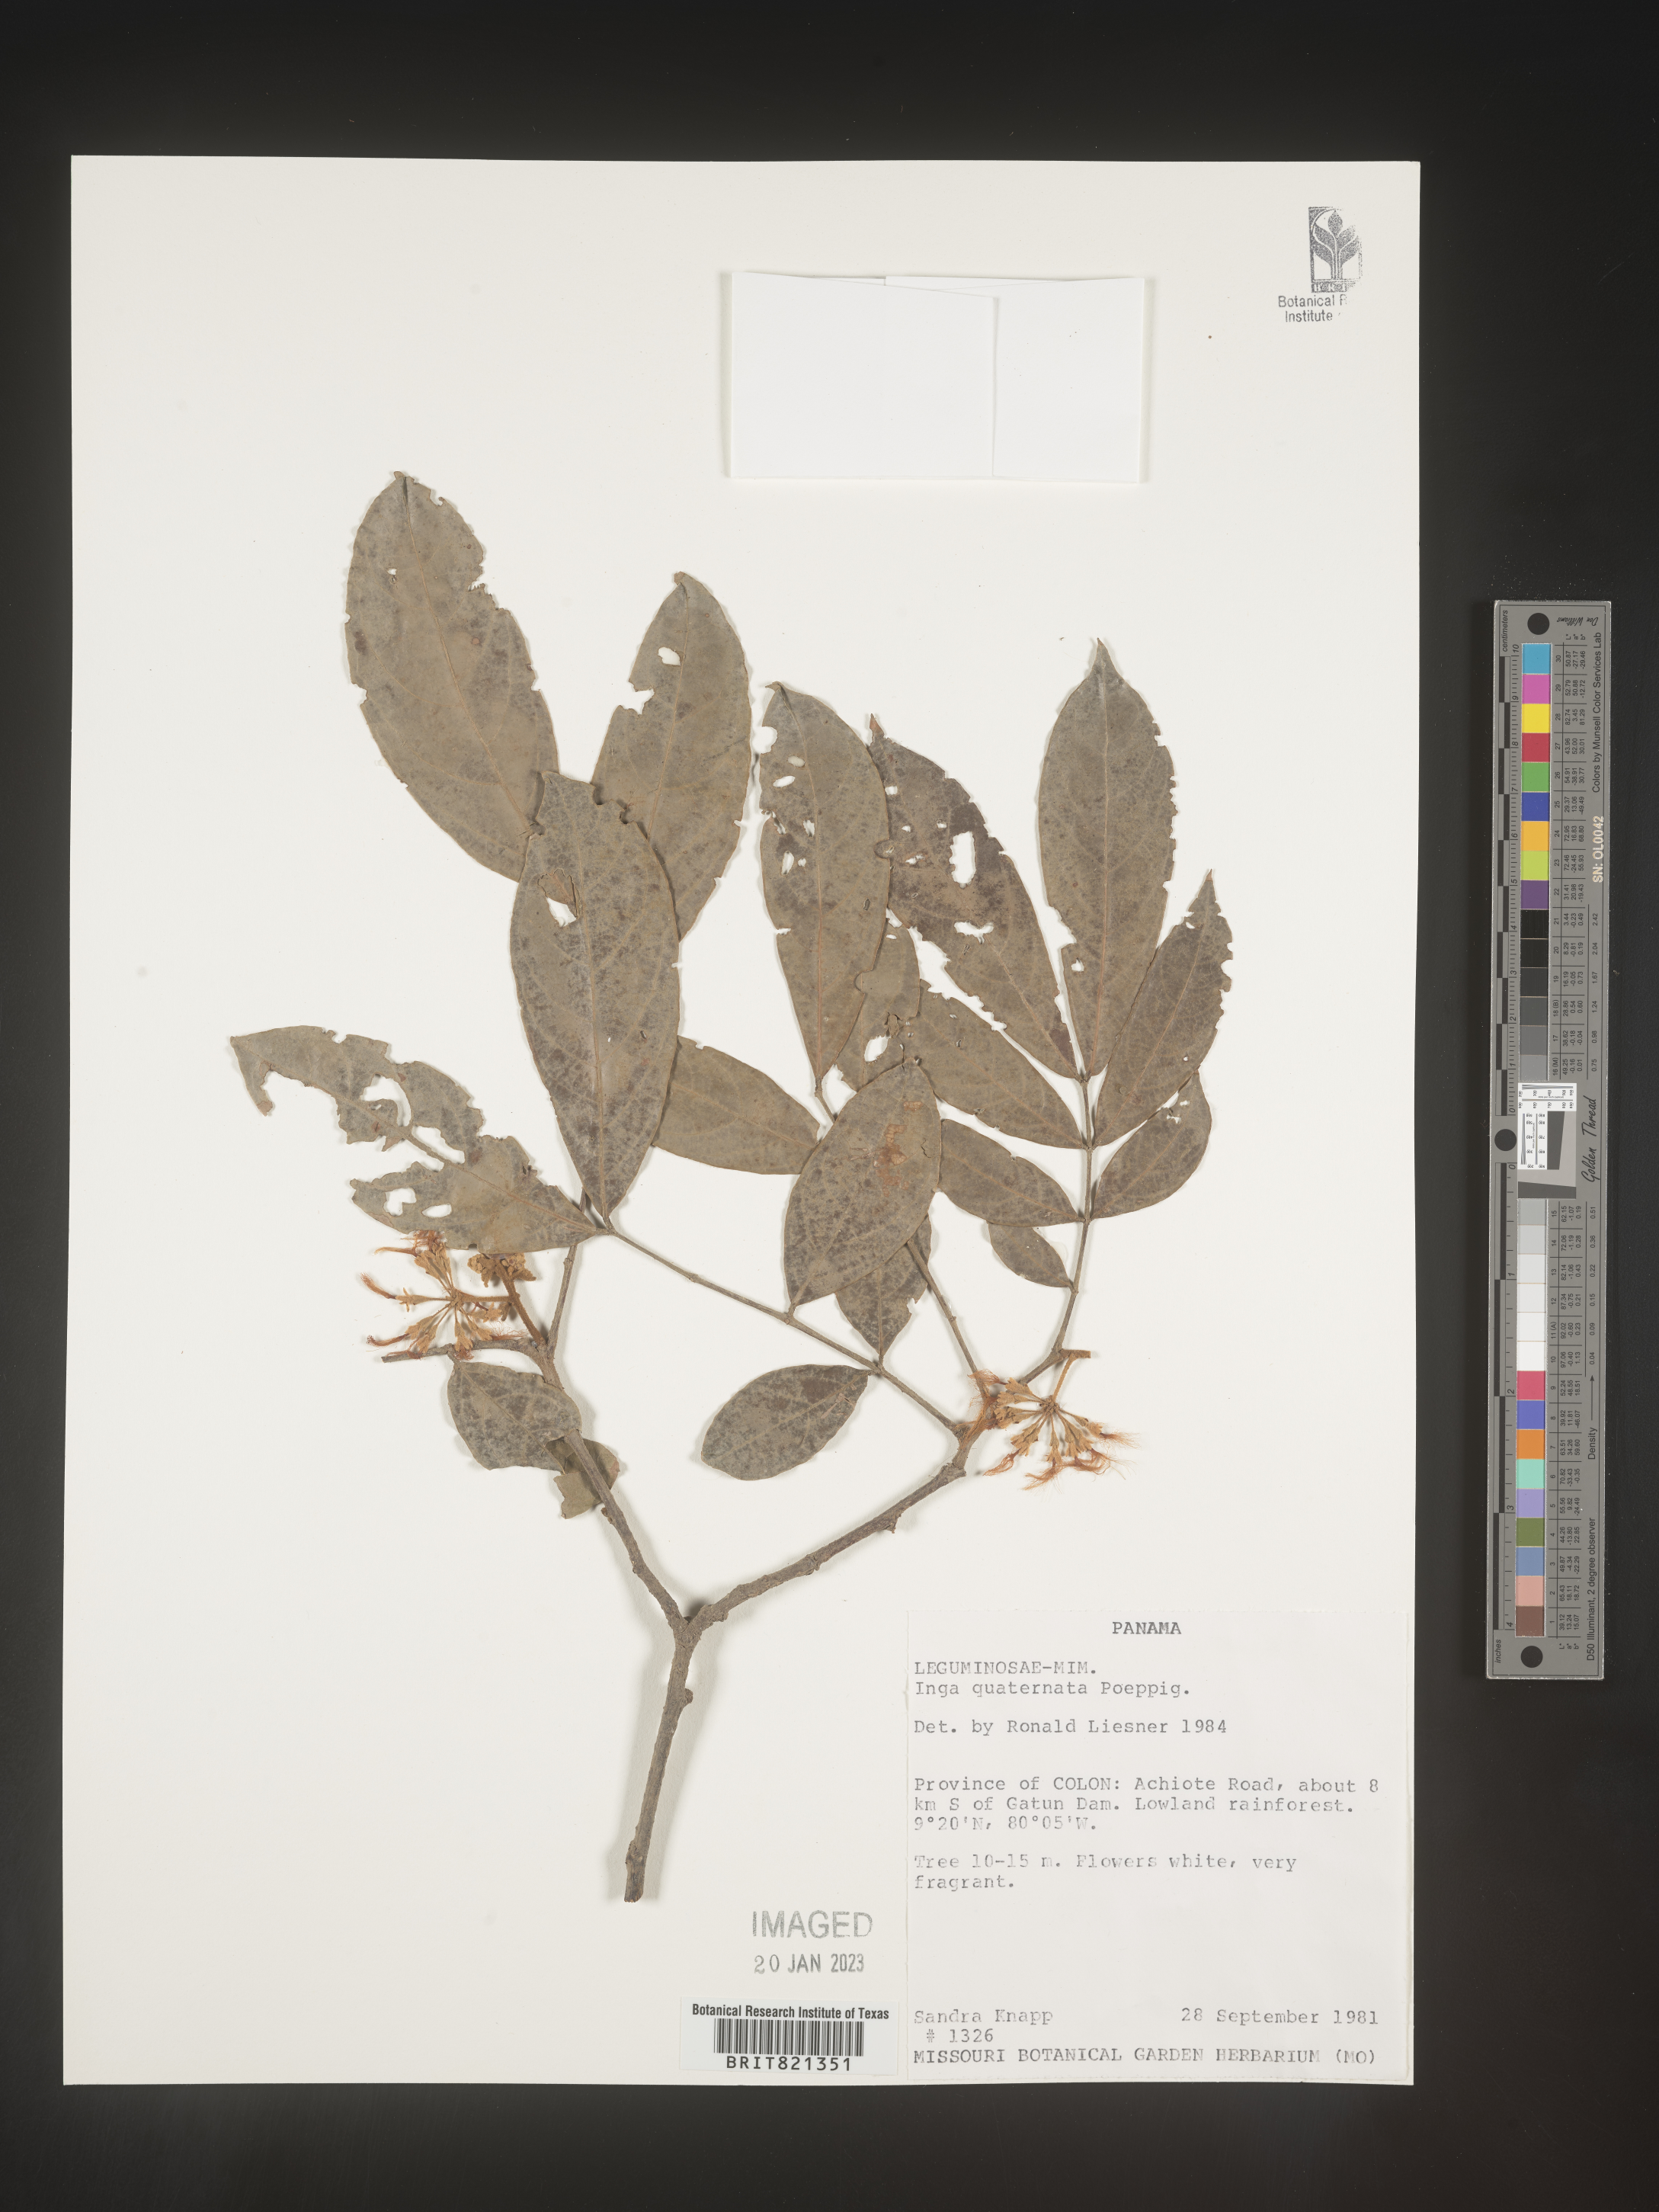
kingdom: Plantae
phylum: Tracheophyta
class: Magnoliopsida
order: Fabales
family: Fabaceae
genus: Inga
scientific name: Inga
